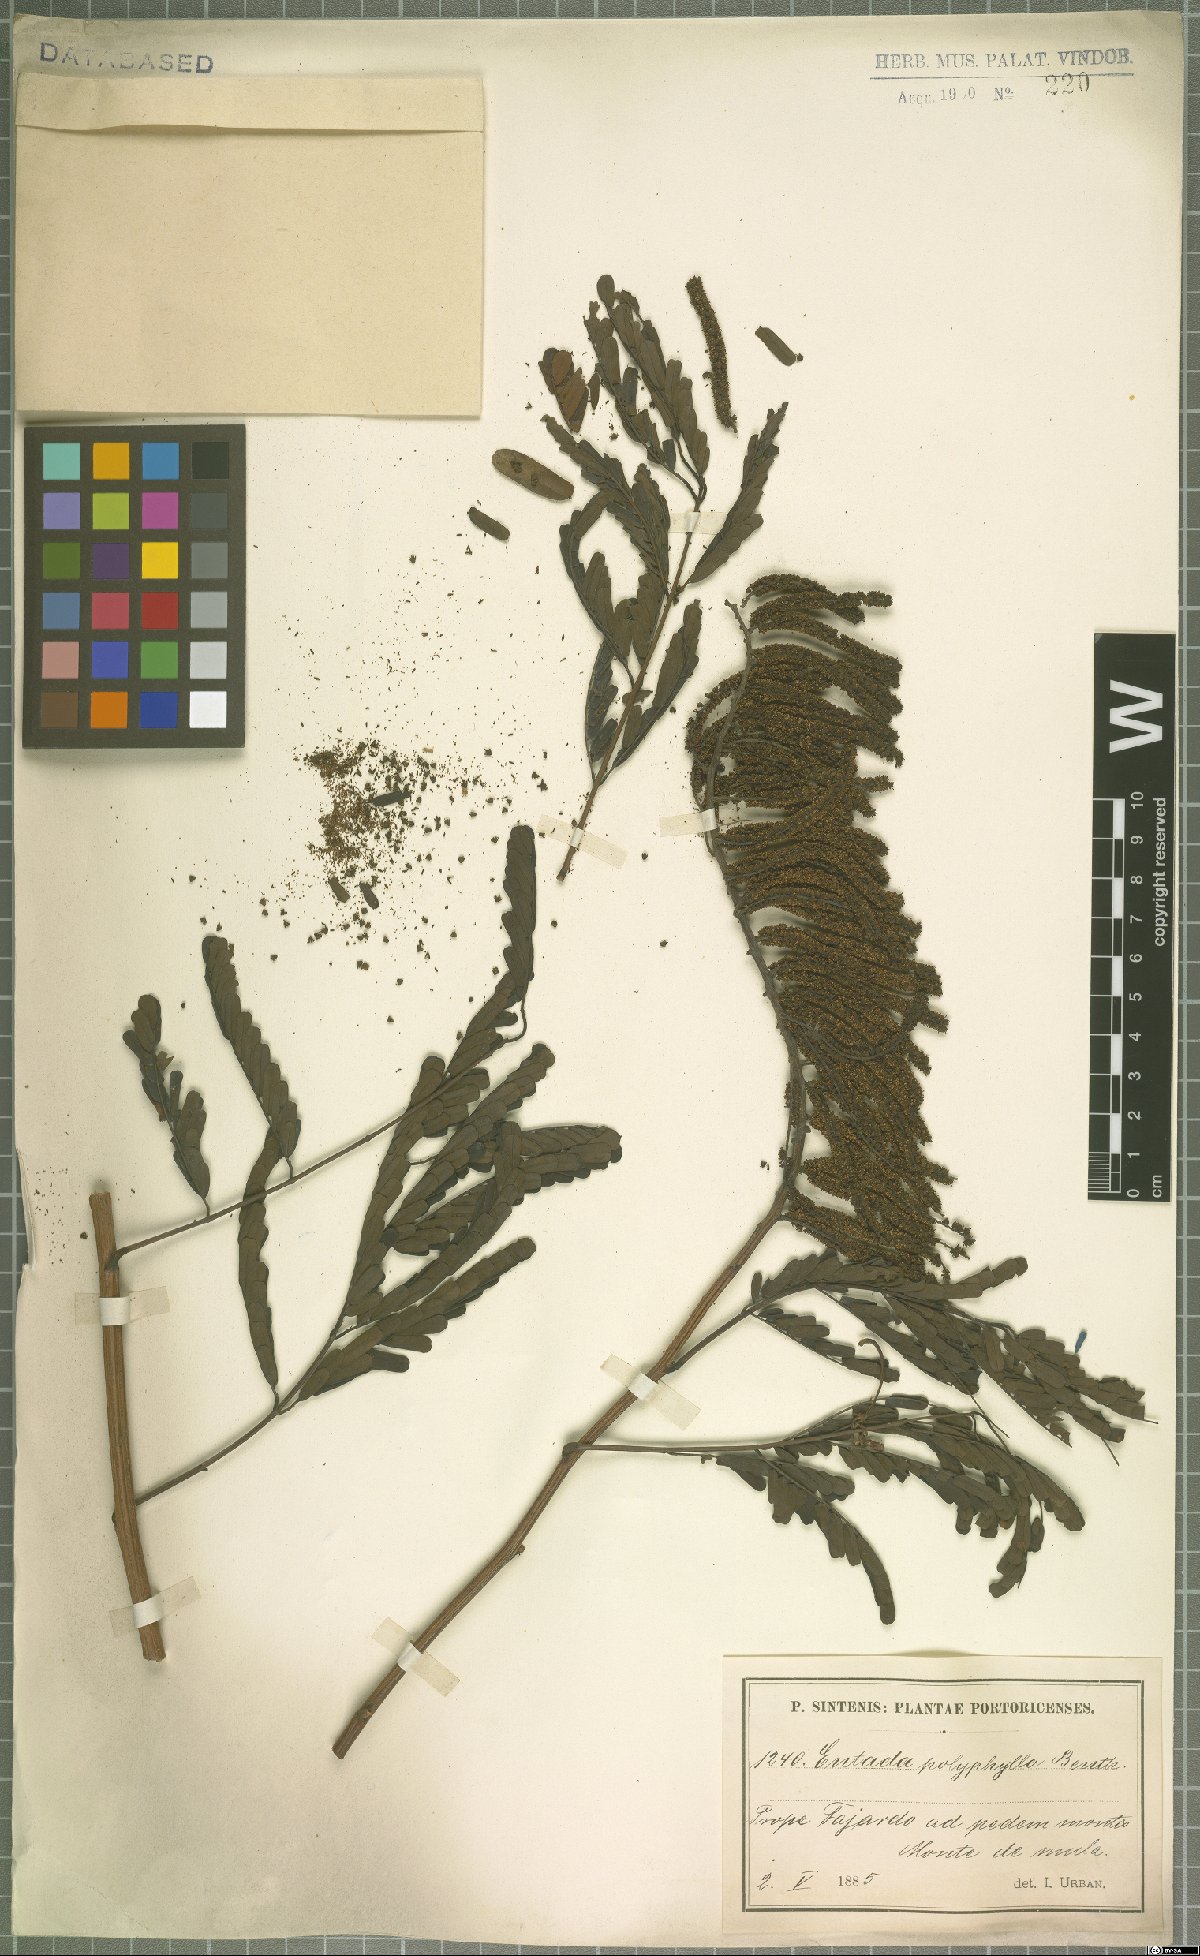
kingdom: Plantae
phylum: Tracheophyta
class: Magnoliopsida
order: Fabales
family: Fabaceae
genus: Entada
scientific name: Entada polyphylla
